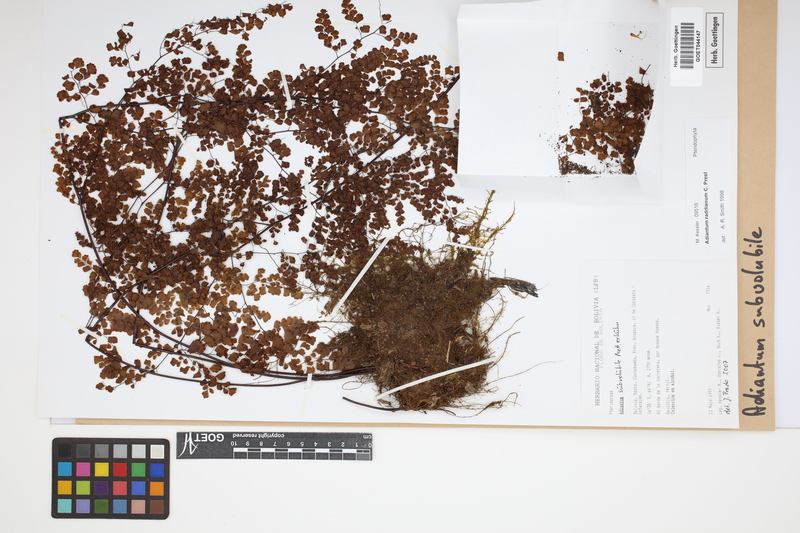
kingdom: Plantae
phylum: Tracheophyta
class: Polypodiopsida
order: Polypodiales
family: Pteridaceae
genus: Adiantum
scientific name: Adiantum subvolubile
